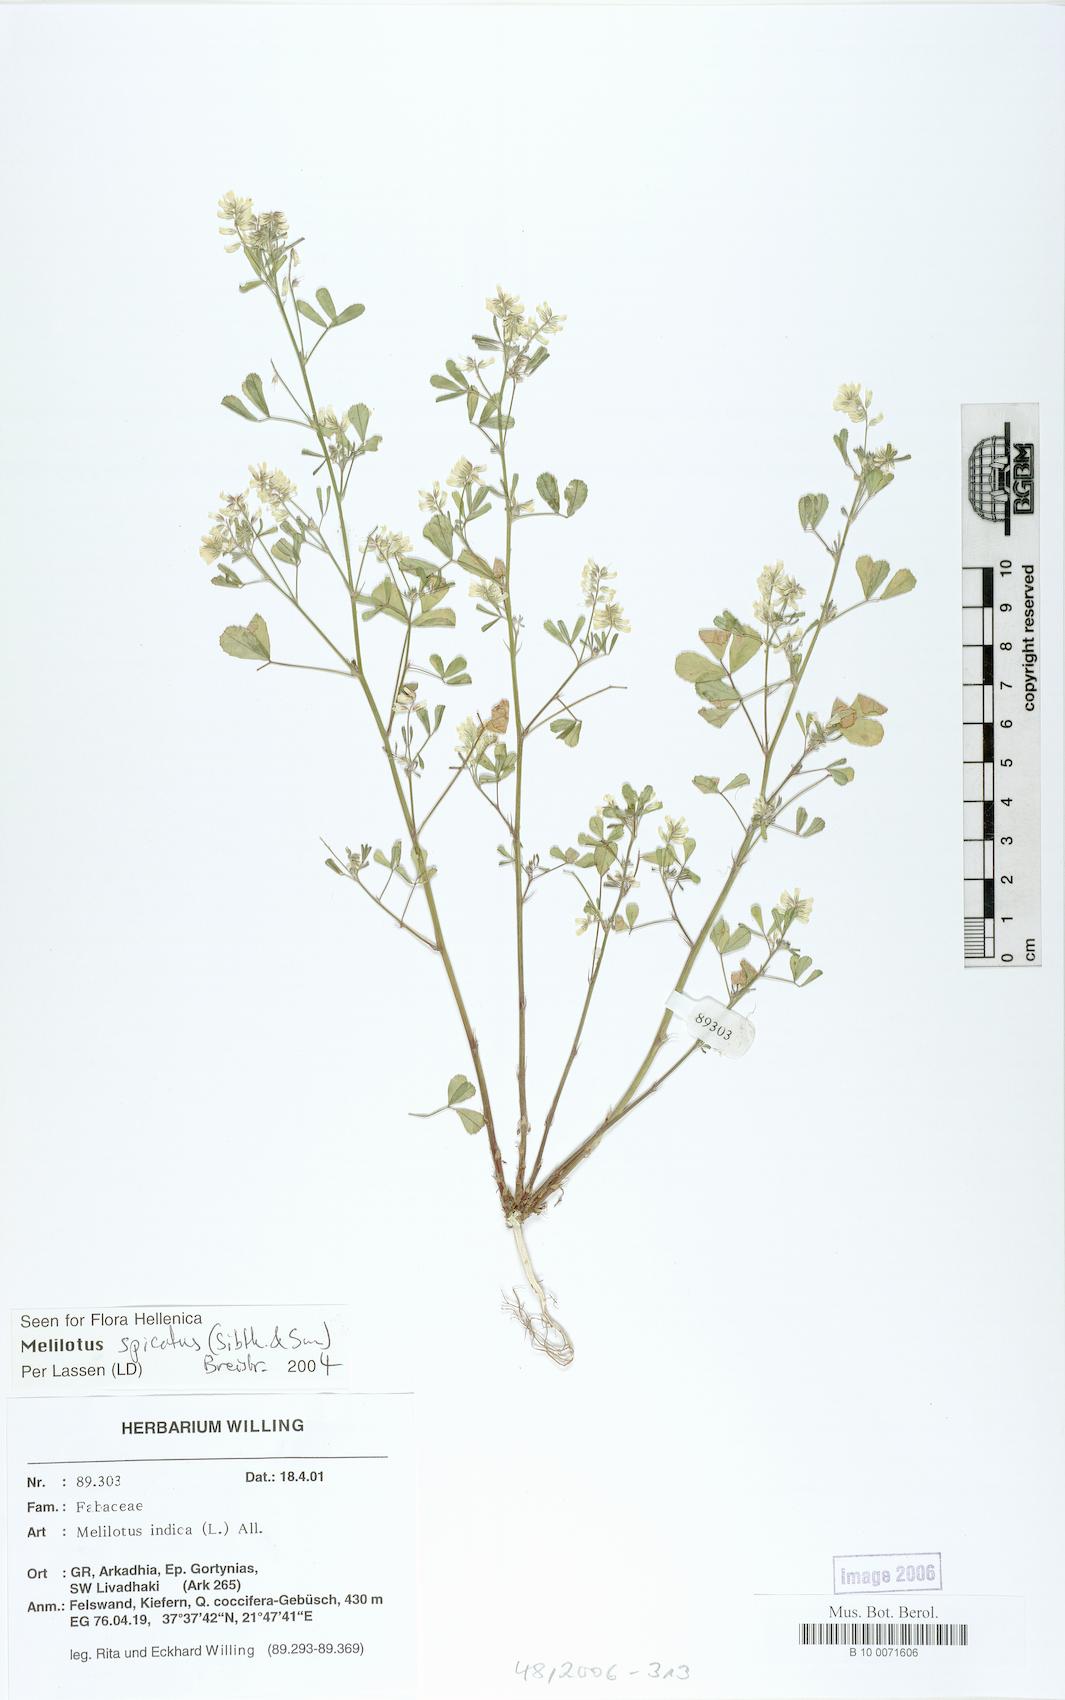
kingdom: Plantae
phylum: Tracheophyta
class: Magnoliopsida
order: Fabales
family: Fabaceae
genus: Melilotus
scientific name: Melilotus indicus
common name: Small melilot
